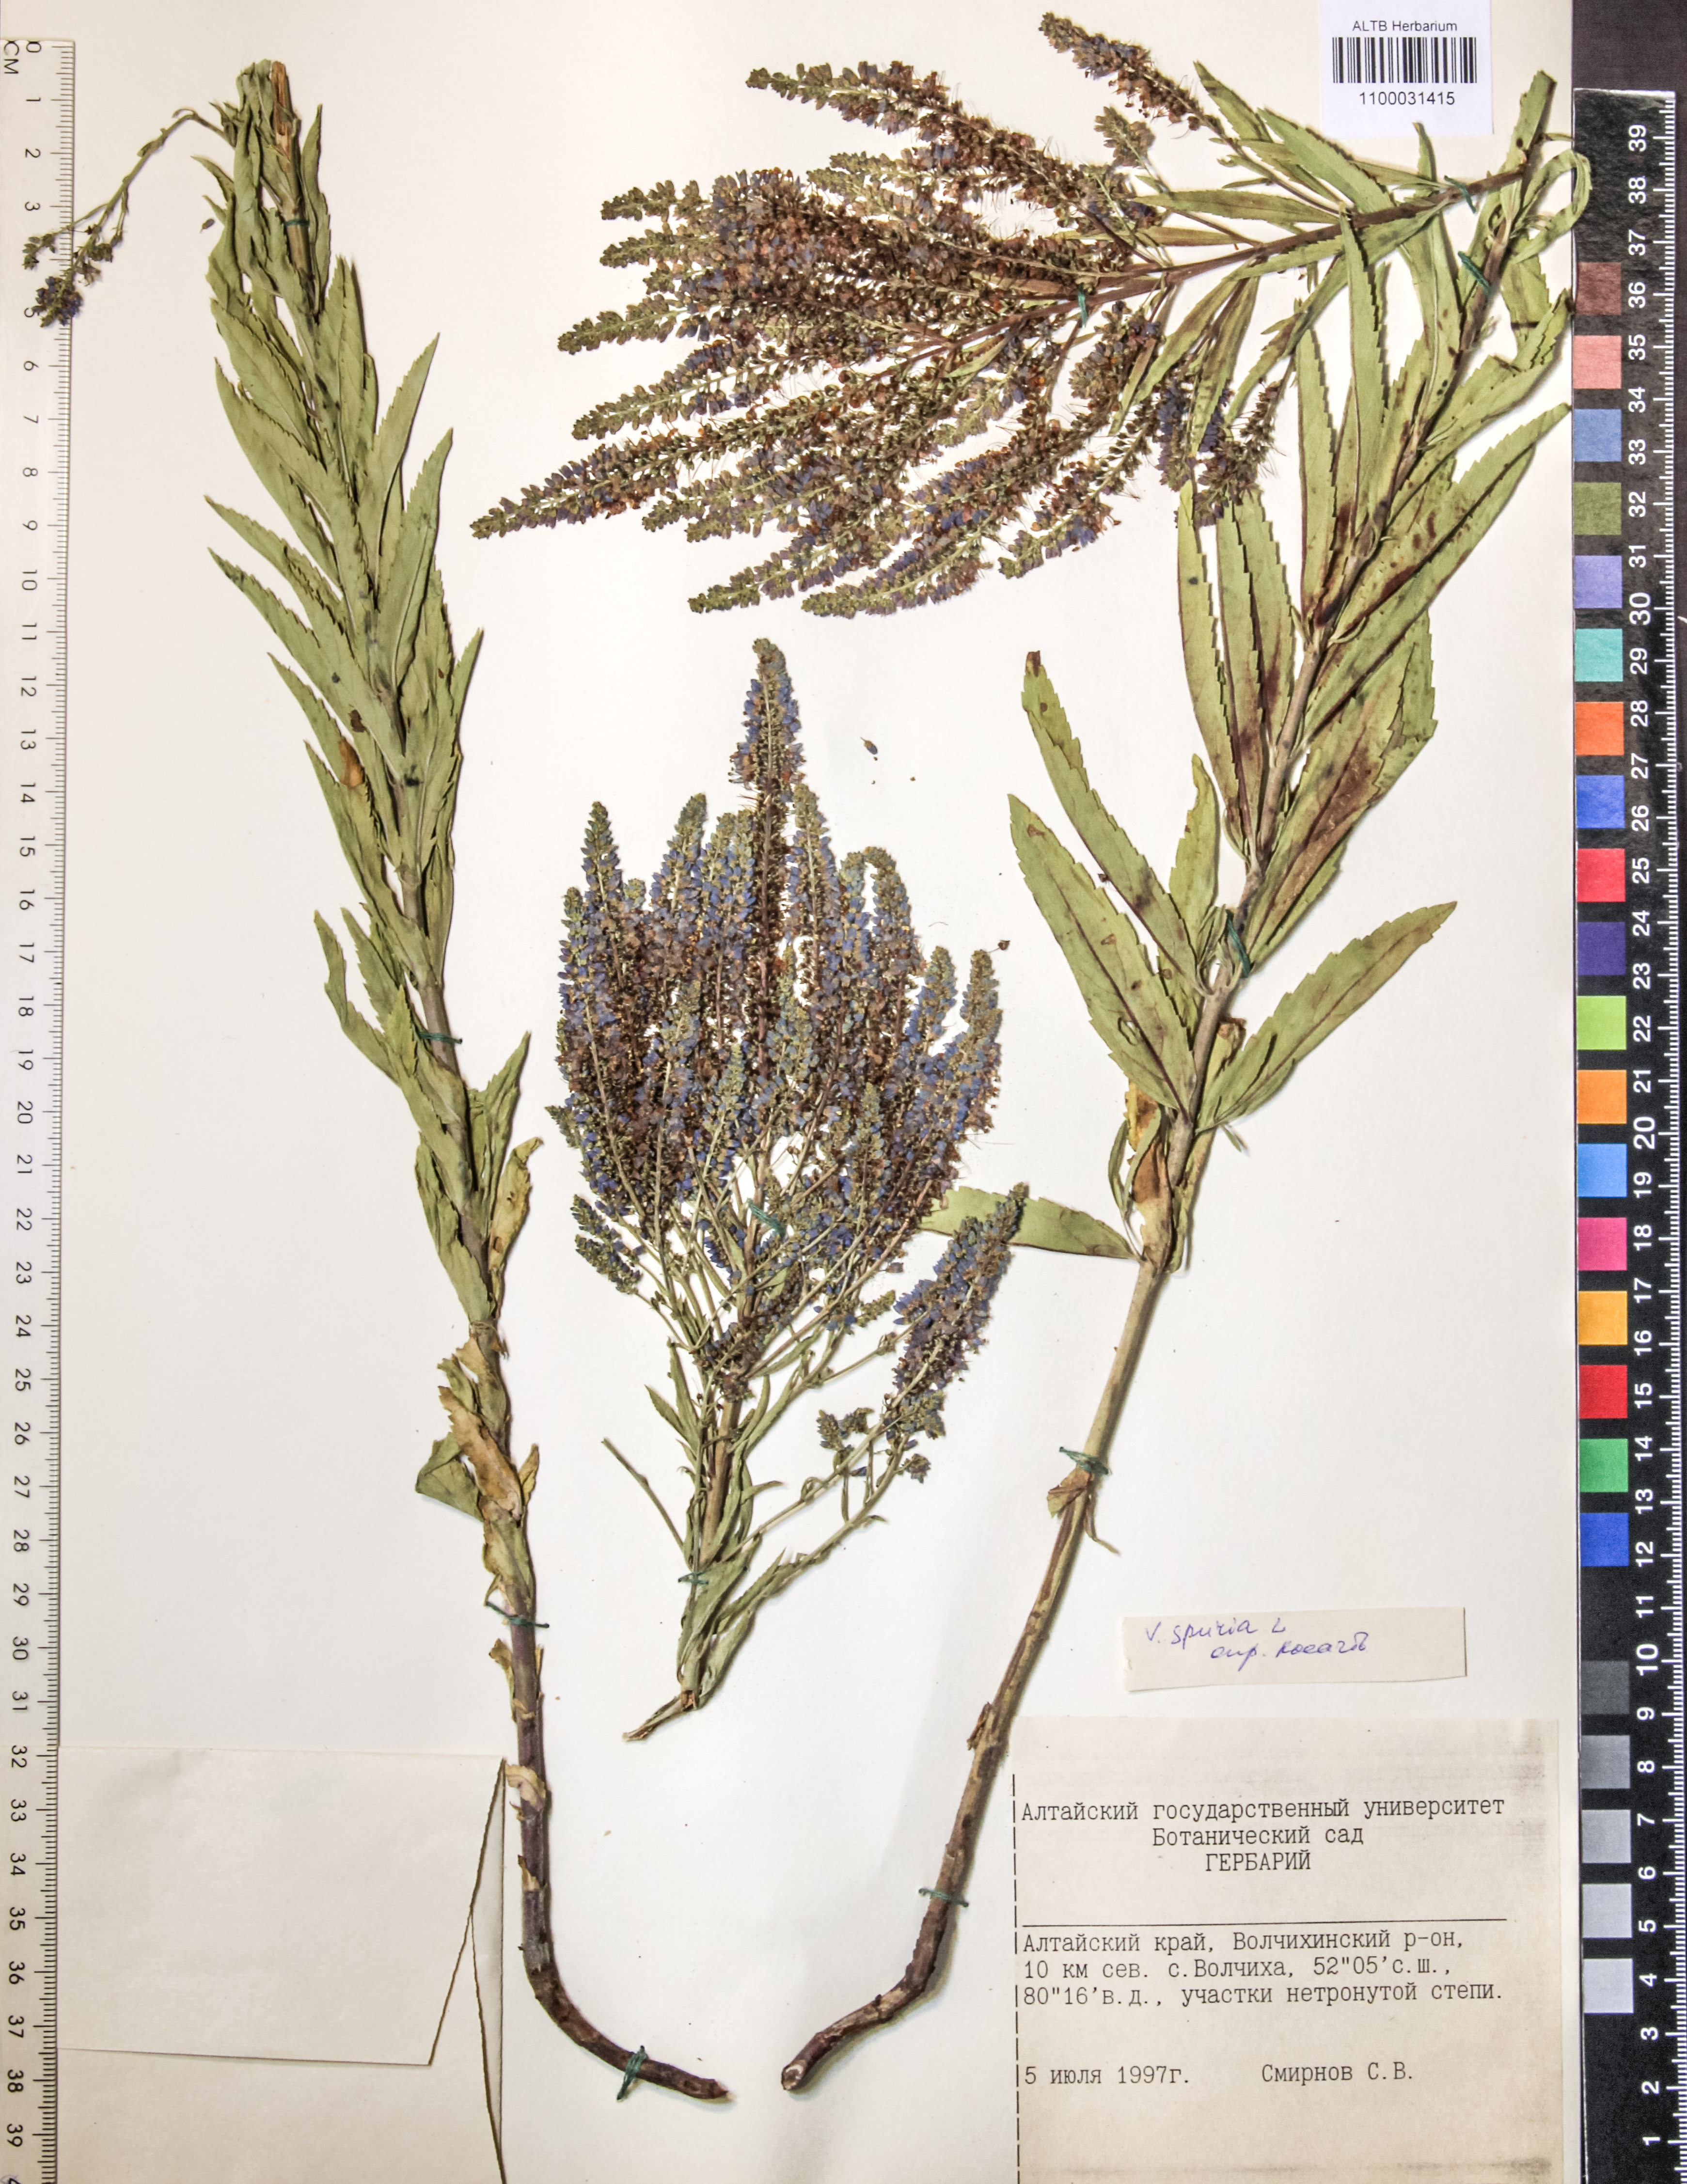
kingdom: Plantae
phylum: Tracheophyta
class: Magnoliopsida
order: Lamiales
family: Plantaginaceae
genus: Veronica
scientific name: Veronica spuria
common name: Bastard speedwell
